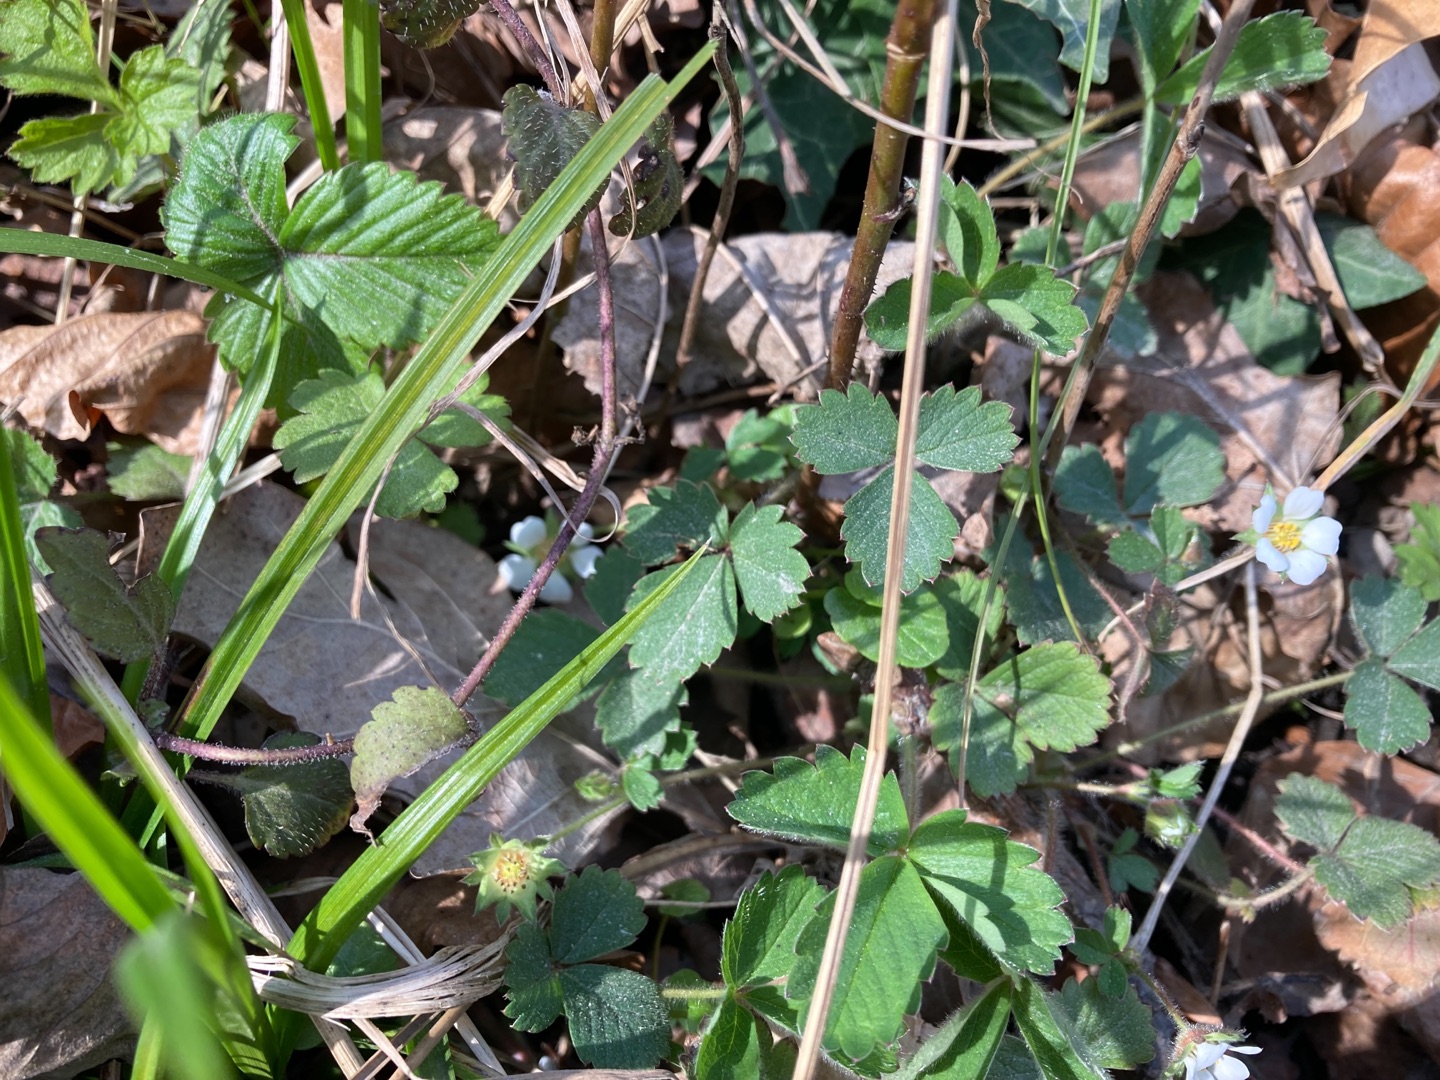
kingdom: Plantae
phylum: Tracheophyta
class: Magnoliopsida
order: Rosales
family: Rosaceae
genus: Potentilla
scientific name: Potentilla sterilis
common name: Jordbær-potentil
